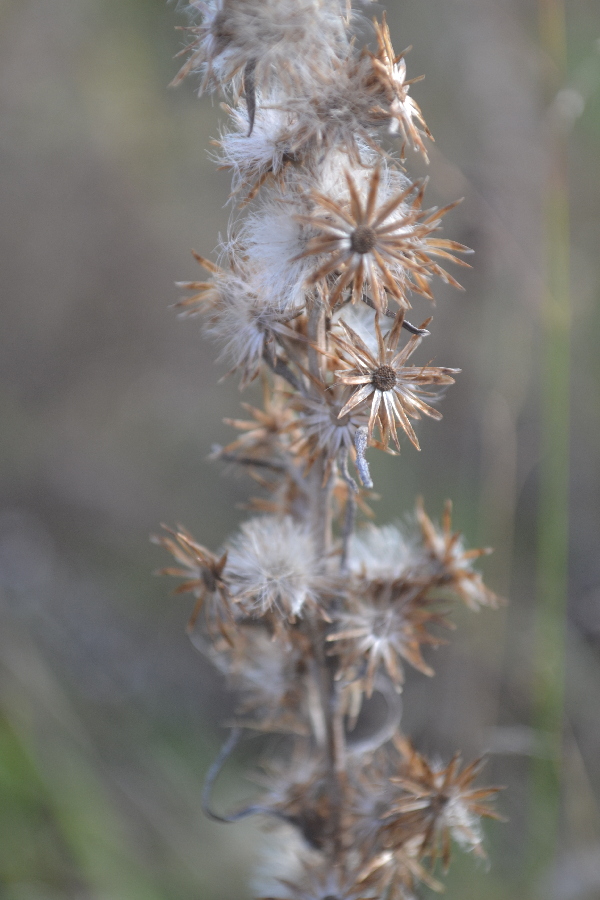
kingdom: Plantae
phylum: Tracheophyta
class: Magnoliopsida
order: Asterales
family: Asteraceae
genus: Omalotheca
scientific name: Omalotheca sylvatica
